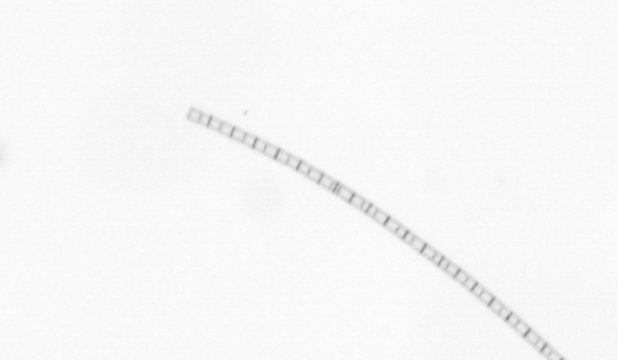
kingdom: Chromista
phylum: Ochrophyta
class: Bacillariophyceae
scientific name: Bacillariophyceae
